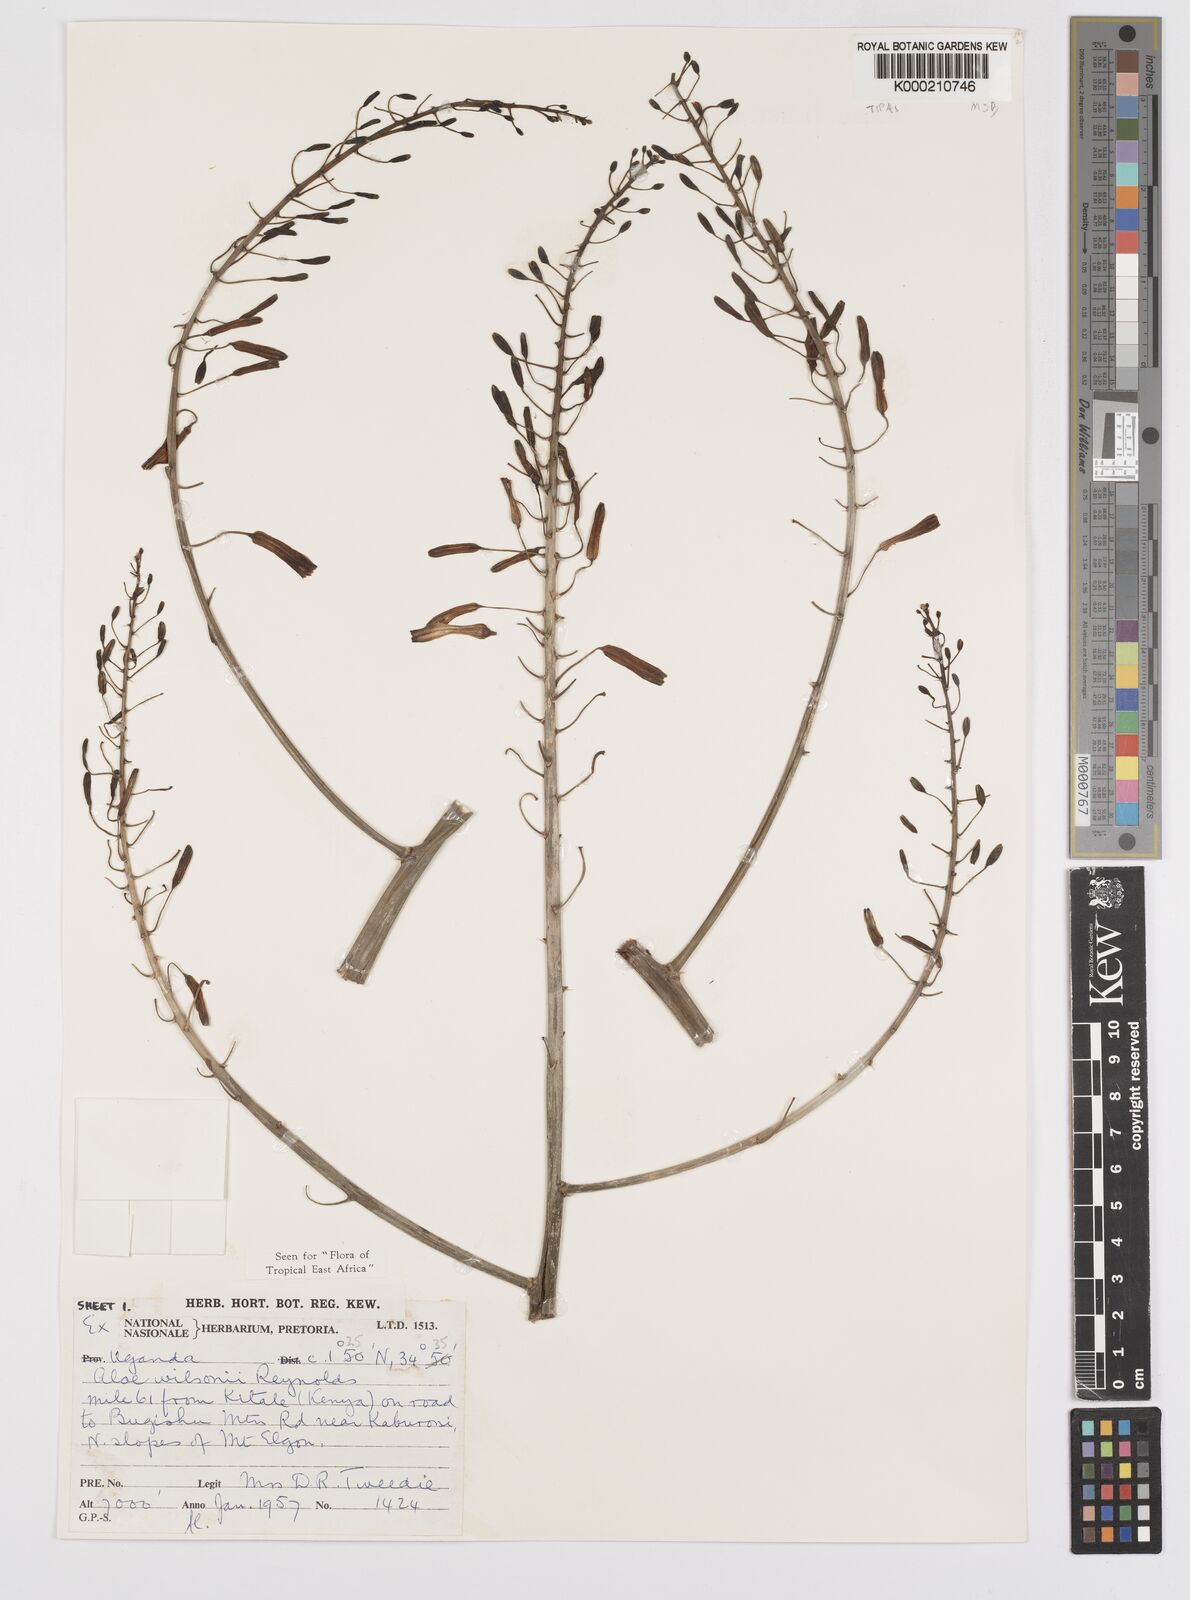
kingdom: Plantae
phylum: Tracheophyta
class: Liliopsida
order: Asparagales
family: Asphodelaceae
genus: Aloe
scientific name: Aloe wilsonii
